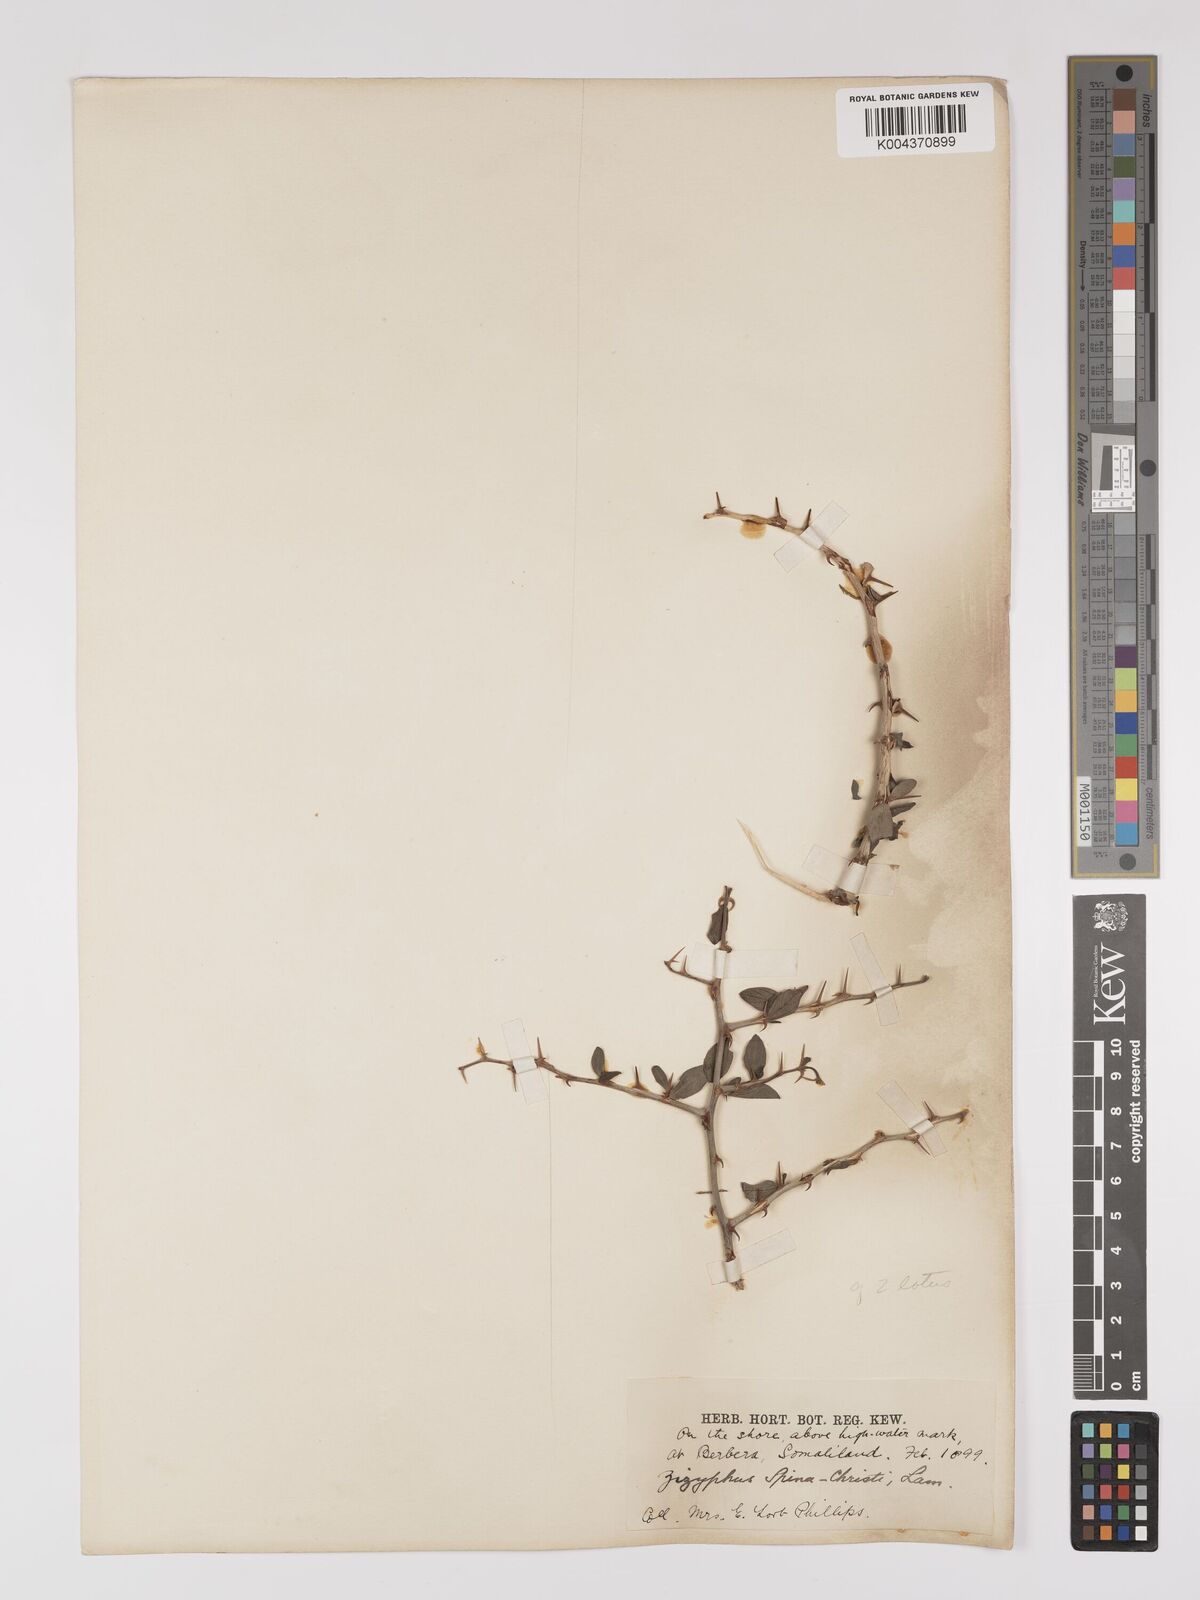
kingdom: Plantae
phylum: Tracheophyta
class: Magnoliopsida
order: Rosales
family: Rhamnaceae
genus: Ziziphus
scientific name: Ziziphus spina-christi
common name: Syrian christ-thorn
